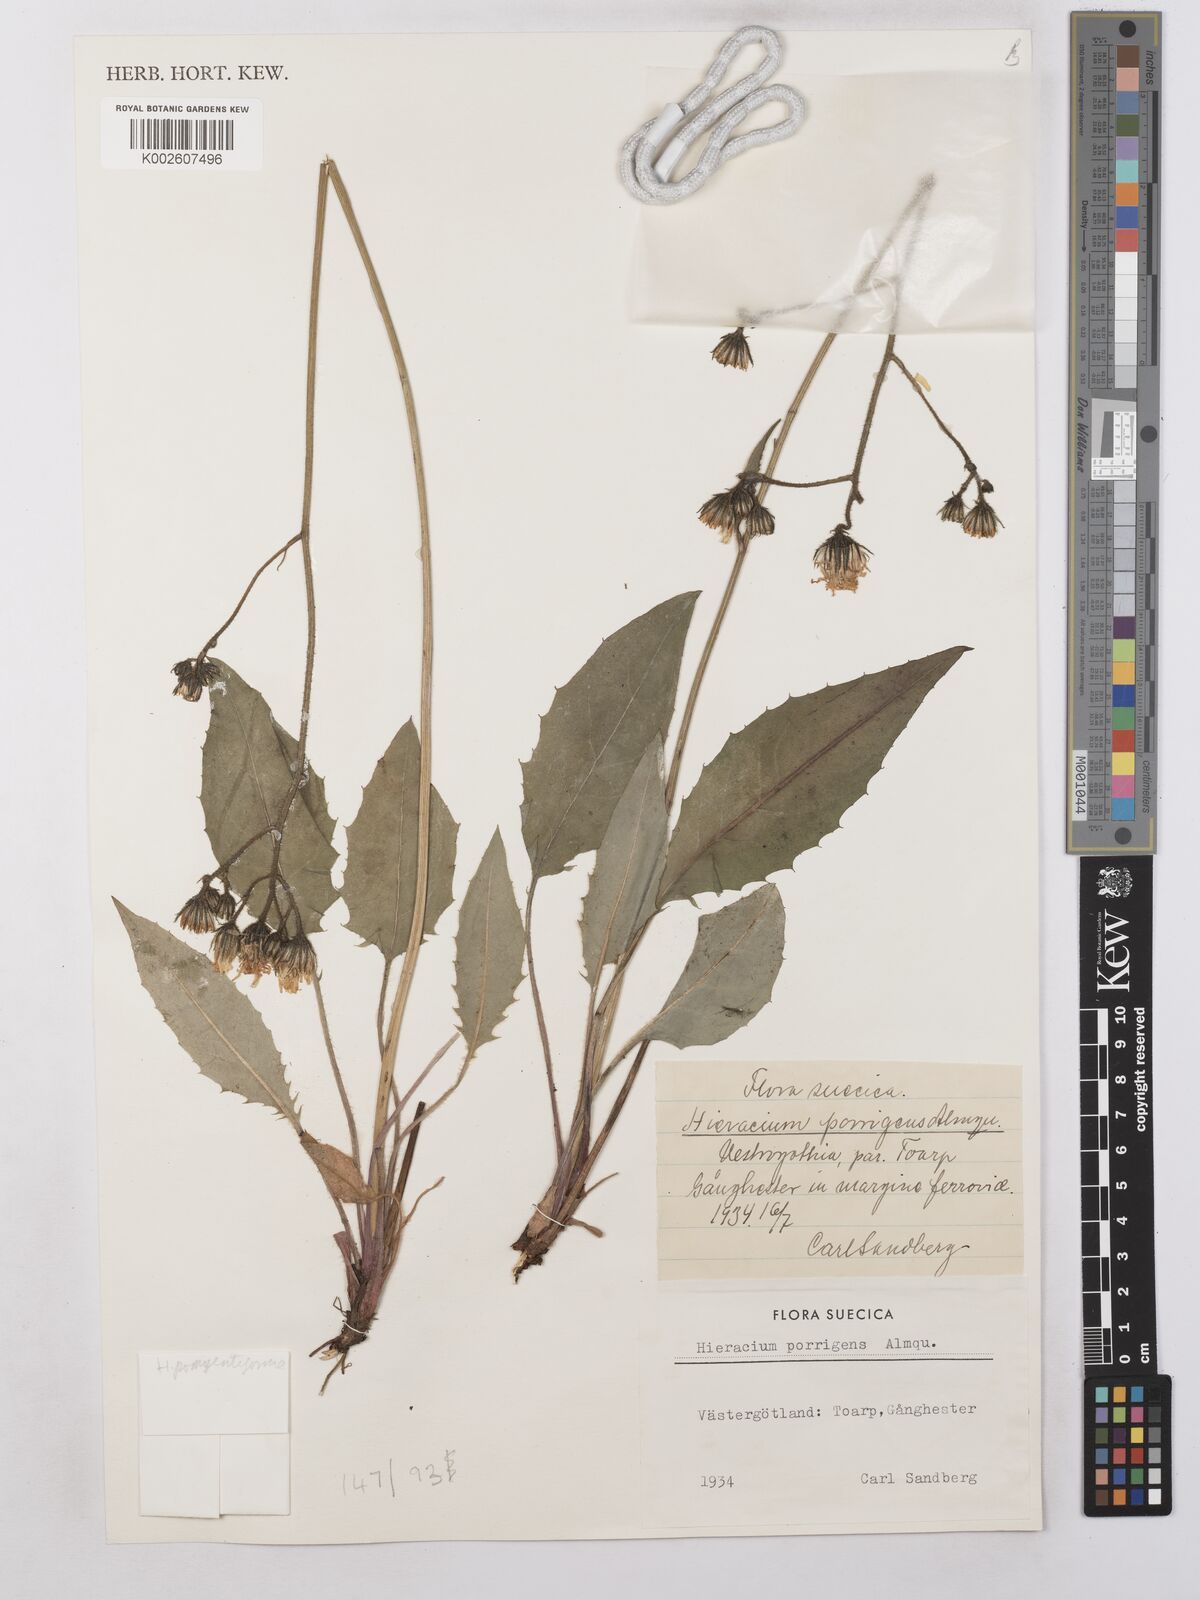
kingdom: Plantae
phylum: Tracheophyta
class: Magnoliopsida
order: Asterales
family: Asteraceae
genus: Hieracium
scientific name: Hieracium caesium
